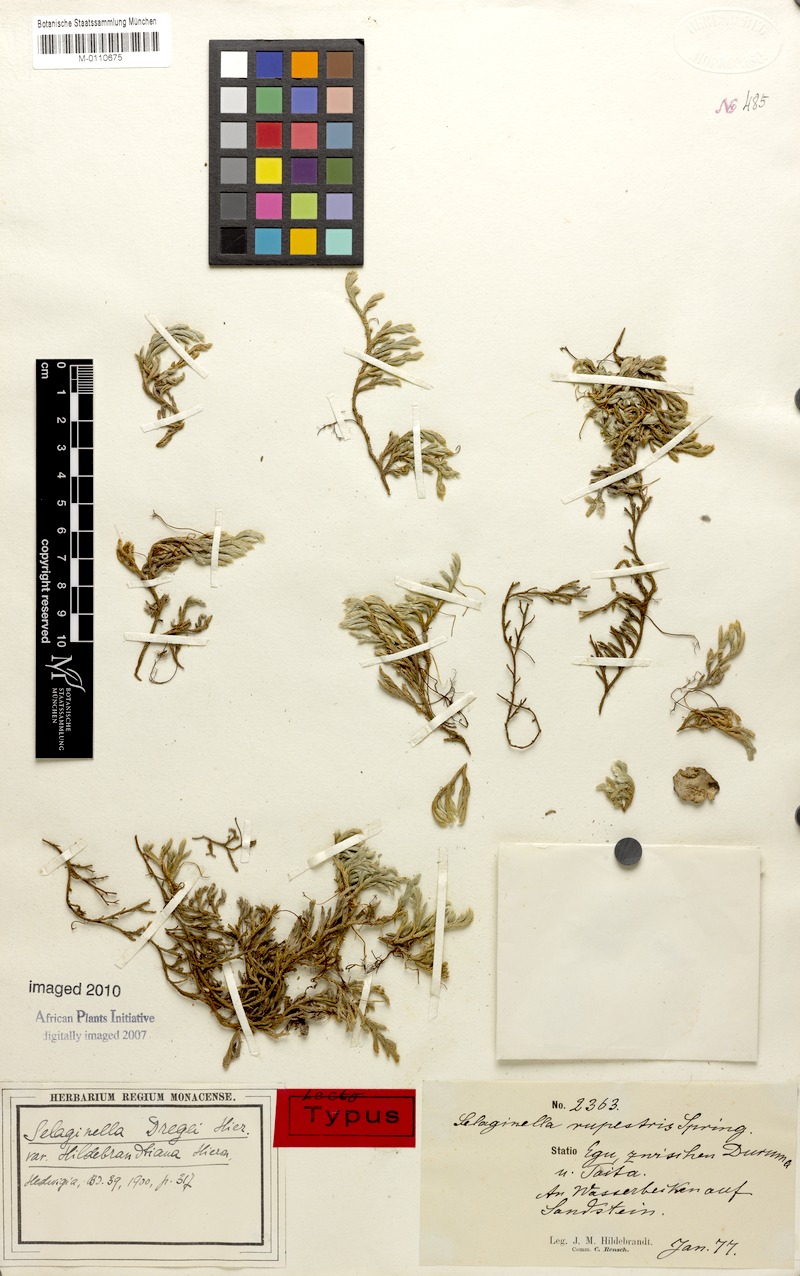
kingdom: Plantae
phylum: Tracheophyta
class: Lycopodiopsida
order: Selaginellales
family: Selaginellaceae
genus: Selaginella
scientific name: Selaginella rupestris
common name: Dwarf spikemoss
